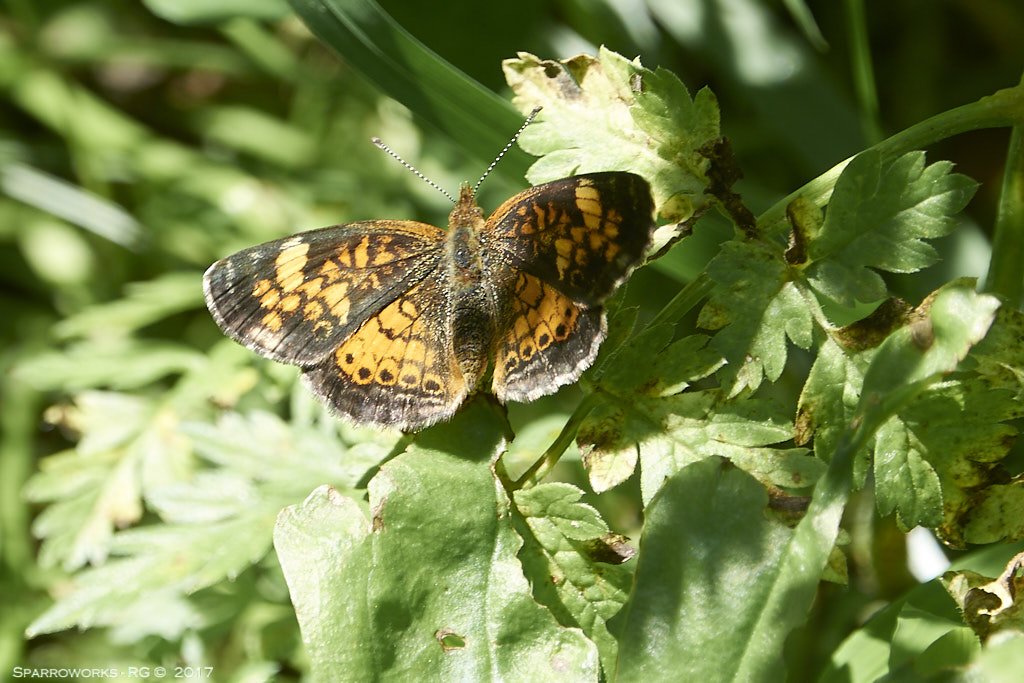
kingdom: Animalia
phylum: Arthropoda
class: Insecta
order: Lepidoptera
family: Nymphalidae
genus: Chlosyne
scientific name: Chlosyne harrisii
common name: Harris's Checkerspot
